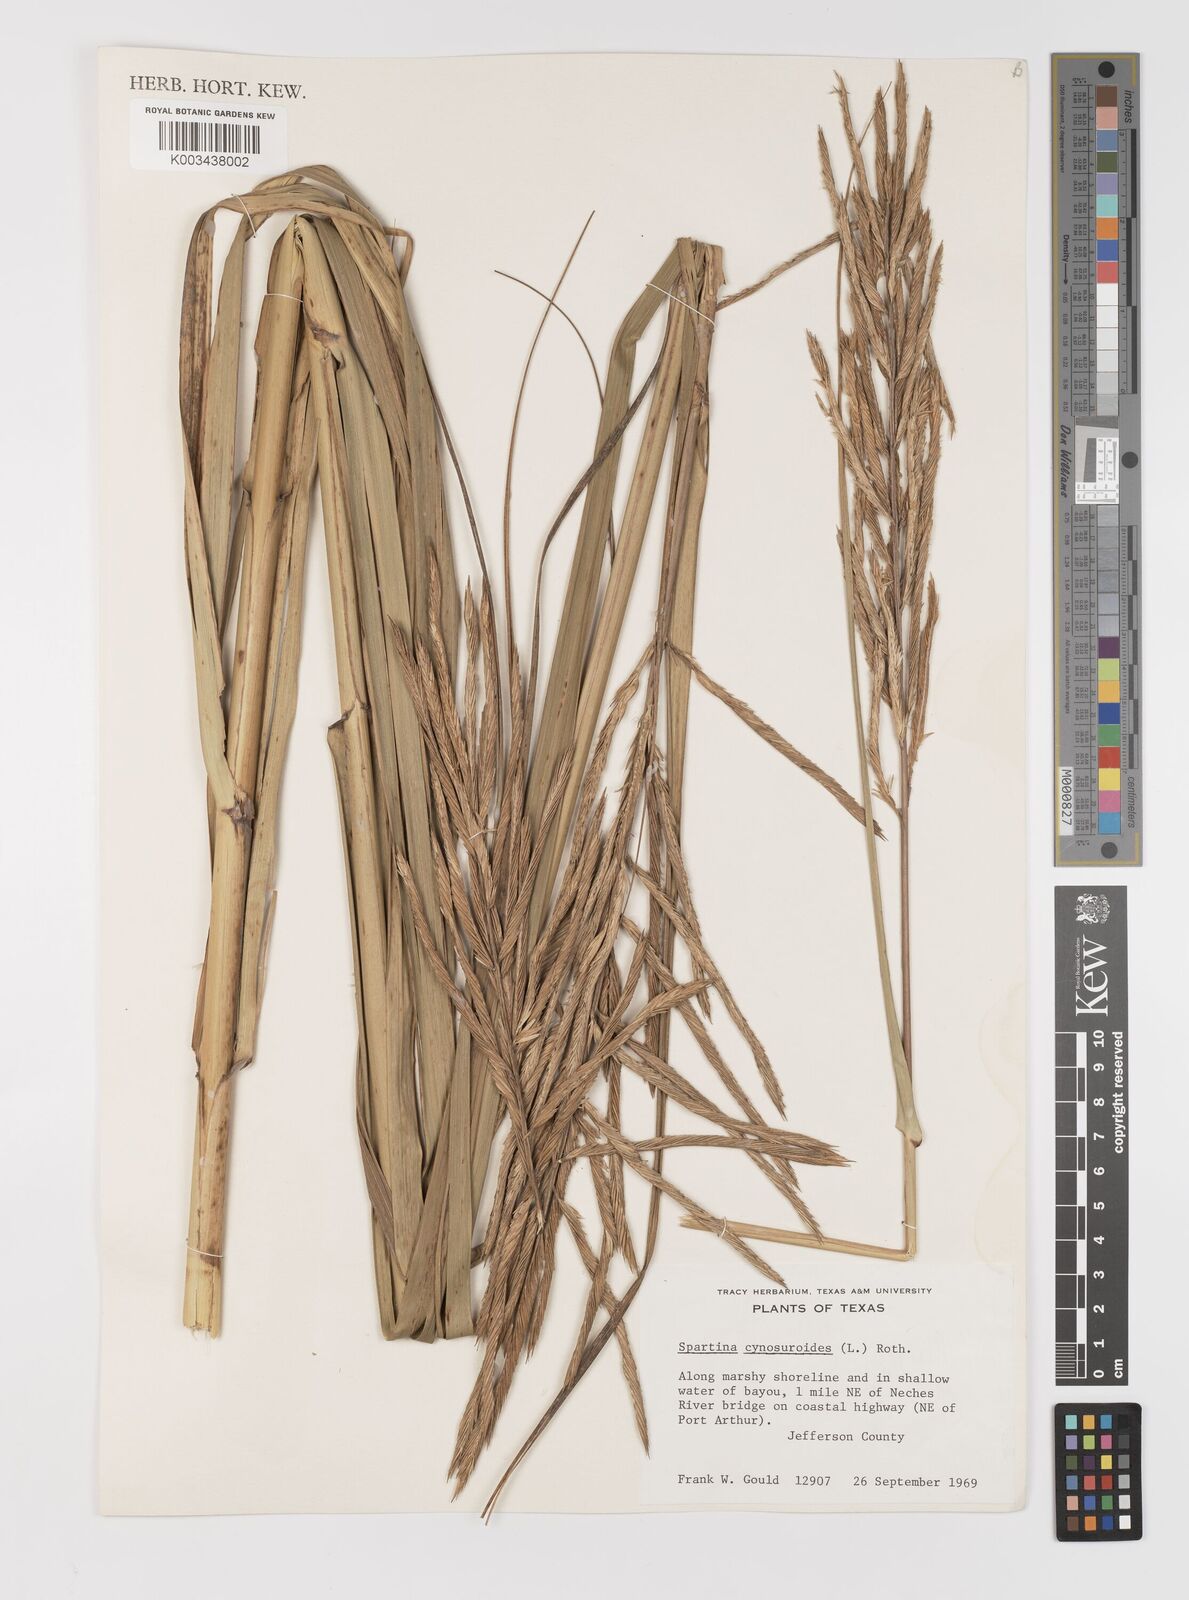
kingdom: Plantae
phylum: Tracheophyta
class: Liliopsida
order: Poales
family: Poaceae
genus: Sporobolus
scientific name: Sporobolus cynosuroides
